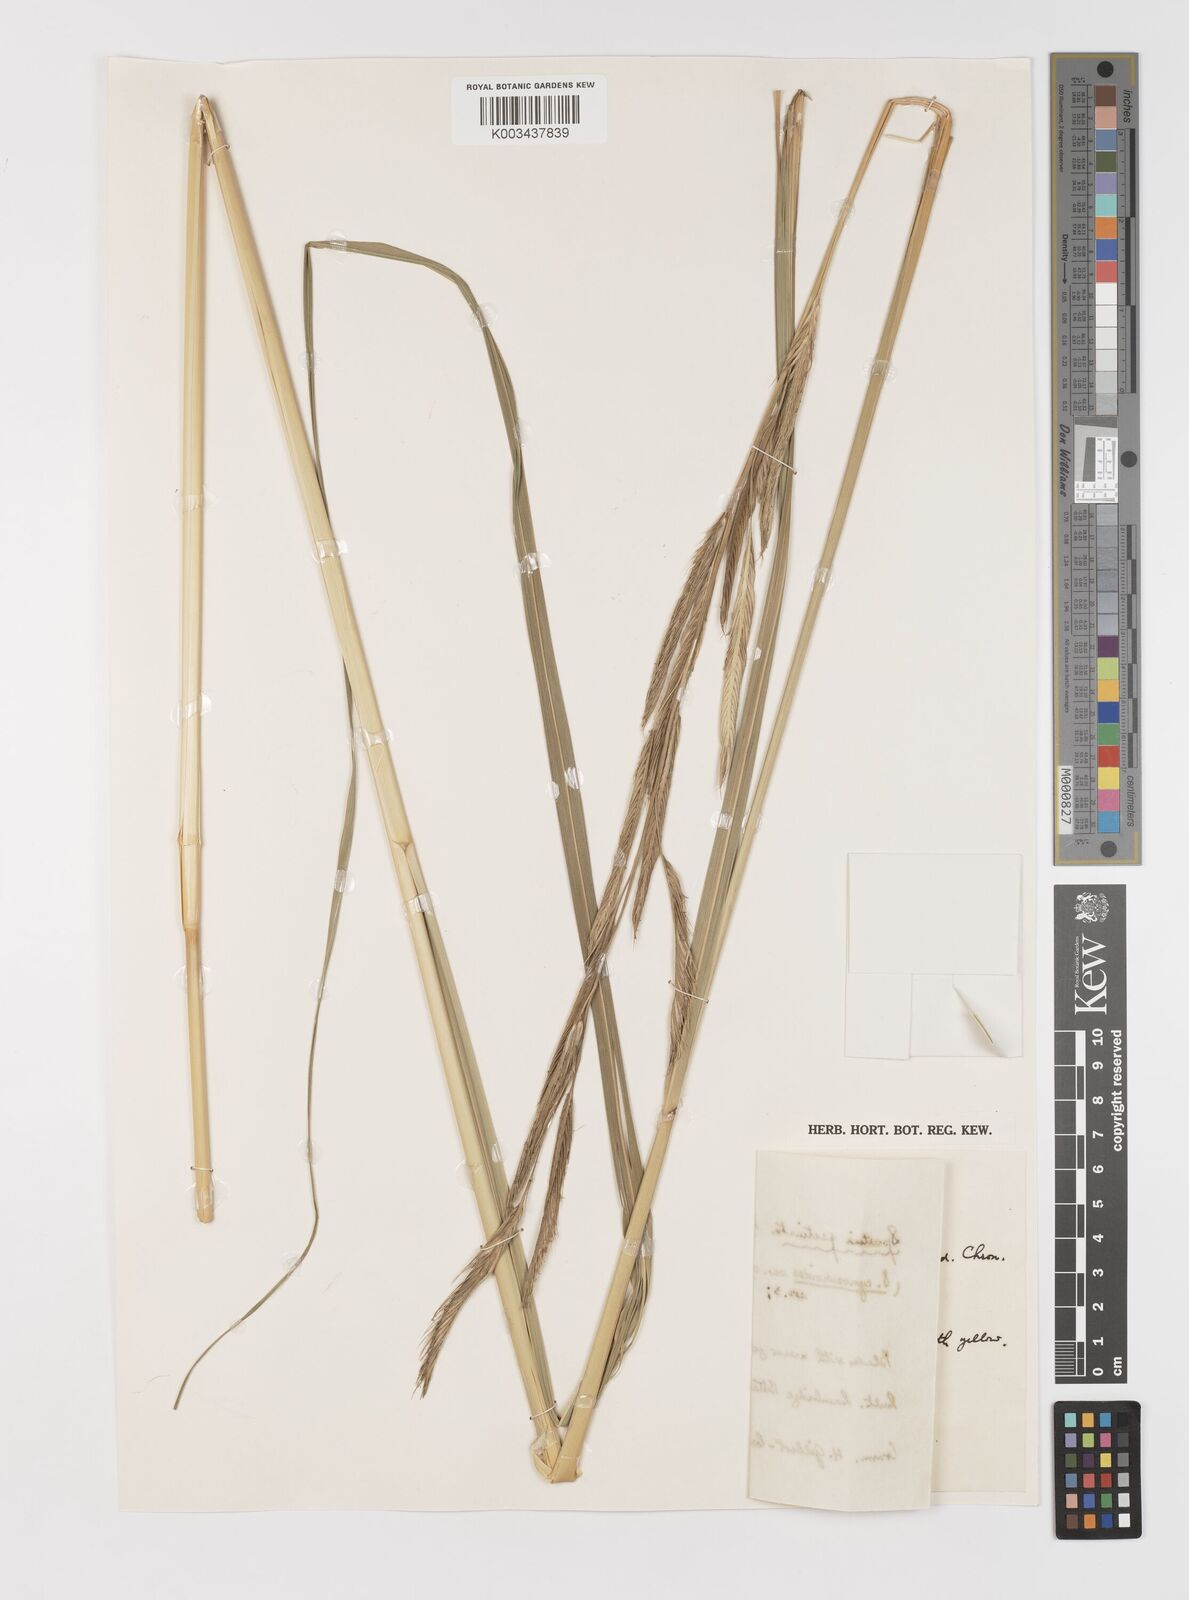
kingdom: Plantae
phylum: Tracheophyta
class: Liliopsida
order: Poales
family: Poaceae
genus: Sporobolus
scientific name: Sporobolus michauxianus
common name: Freshwater cordgrass
